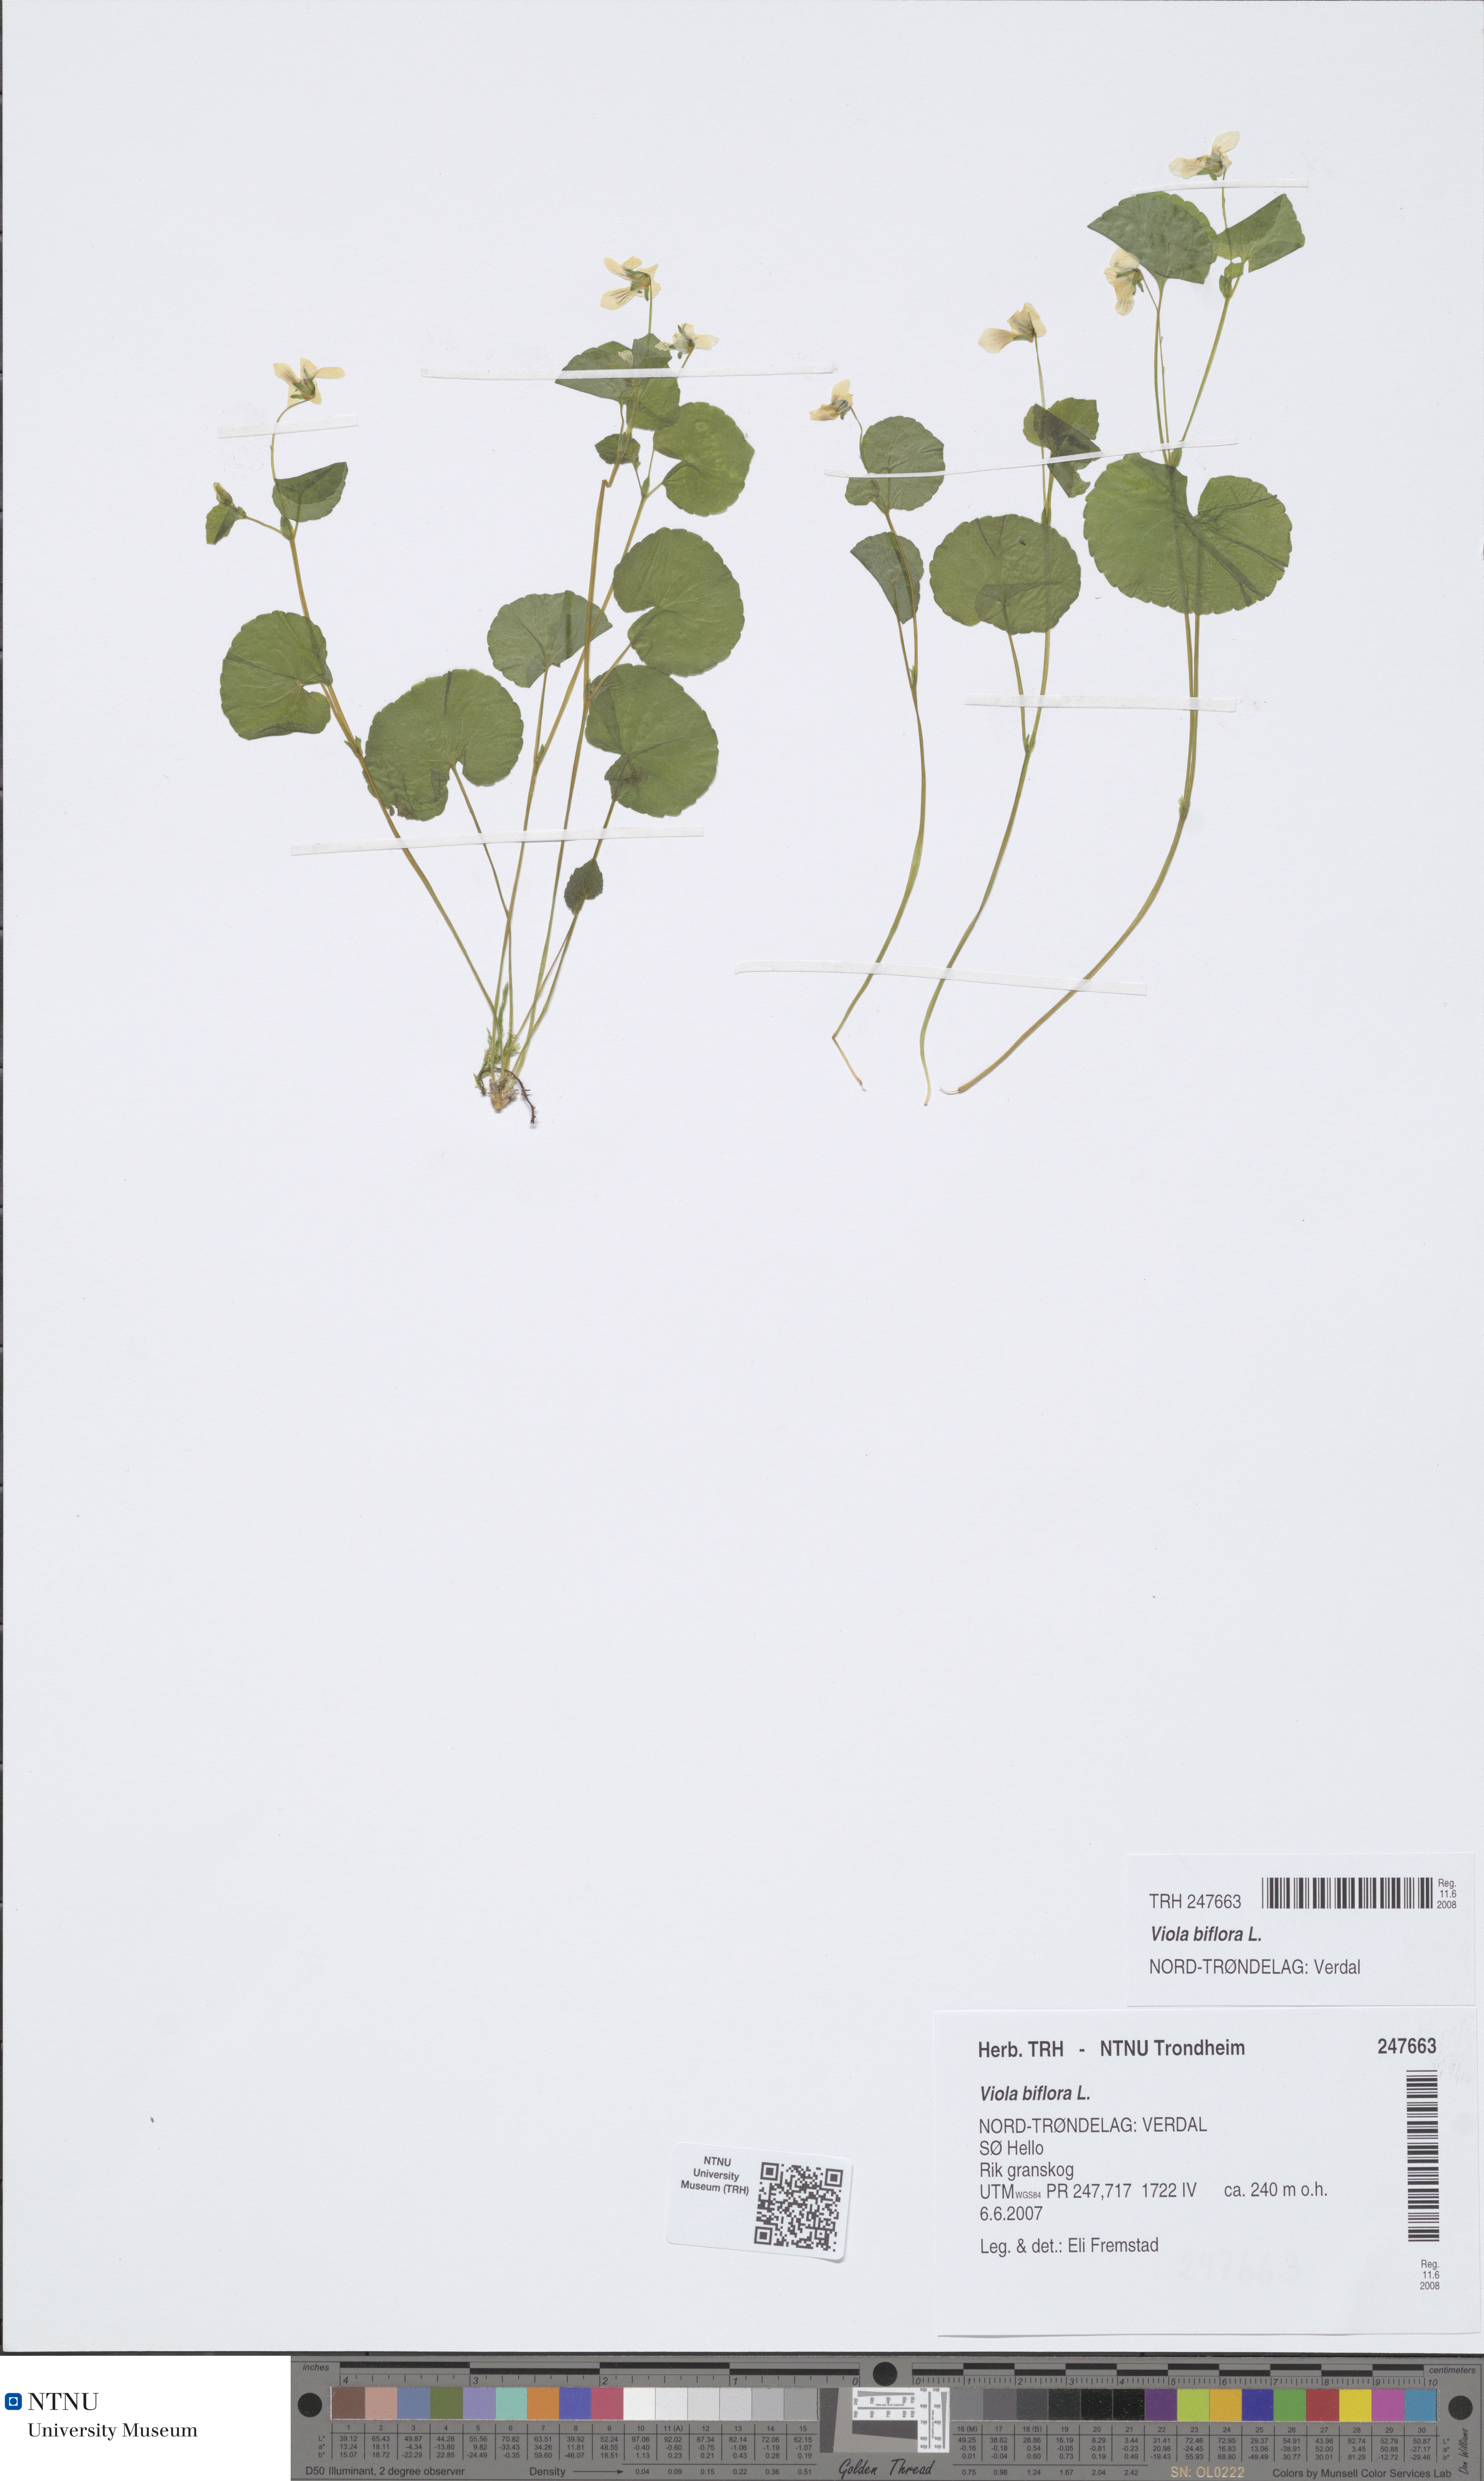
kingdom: Plantae
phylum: Tracheophyta
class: Magnoliopsida
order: Malpighiales
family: Violaceae
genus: Viola
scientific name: Viola biflora
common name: Alpine yellow violet
